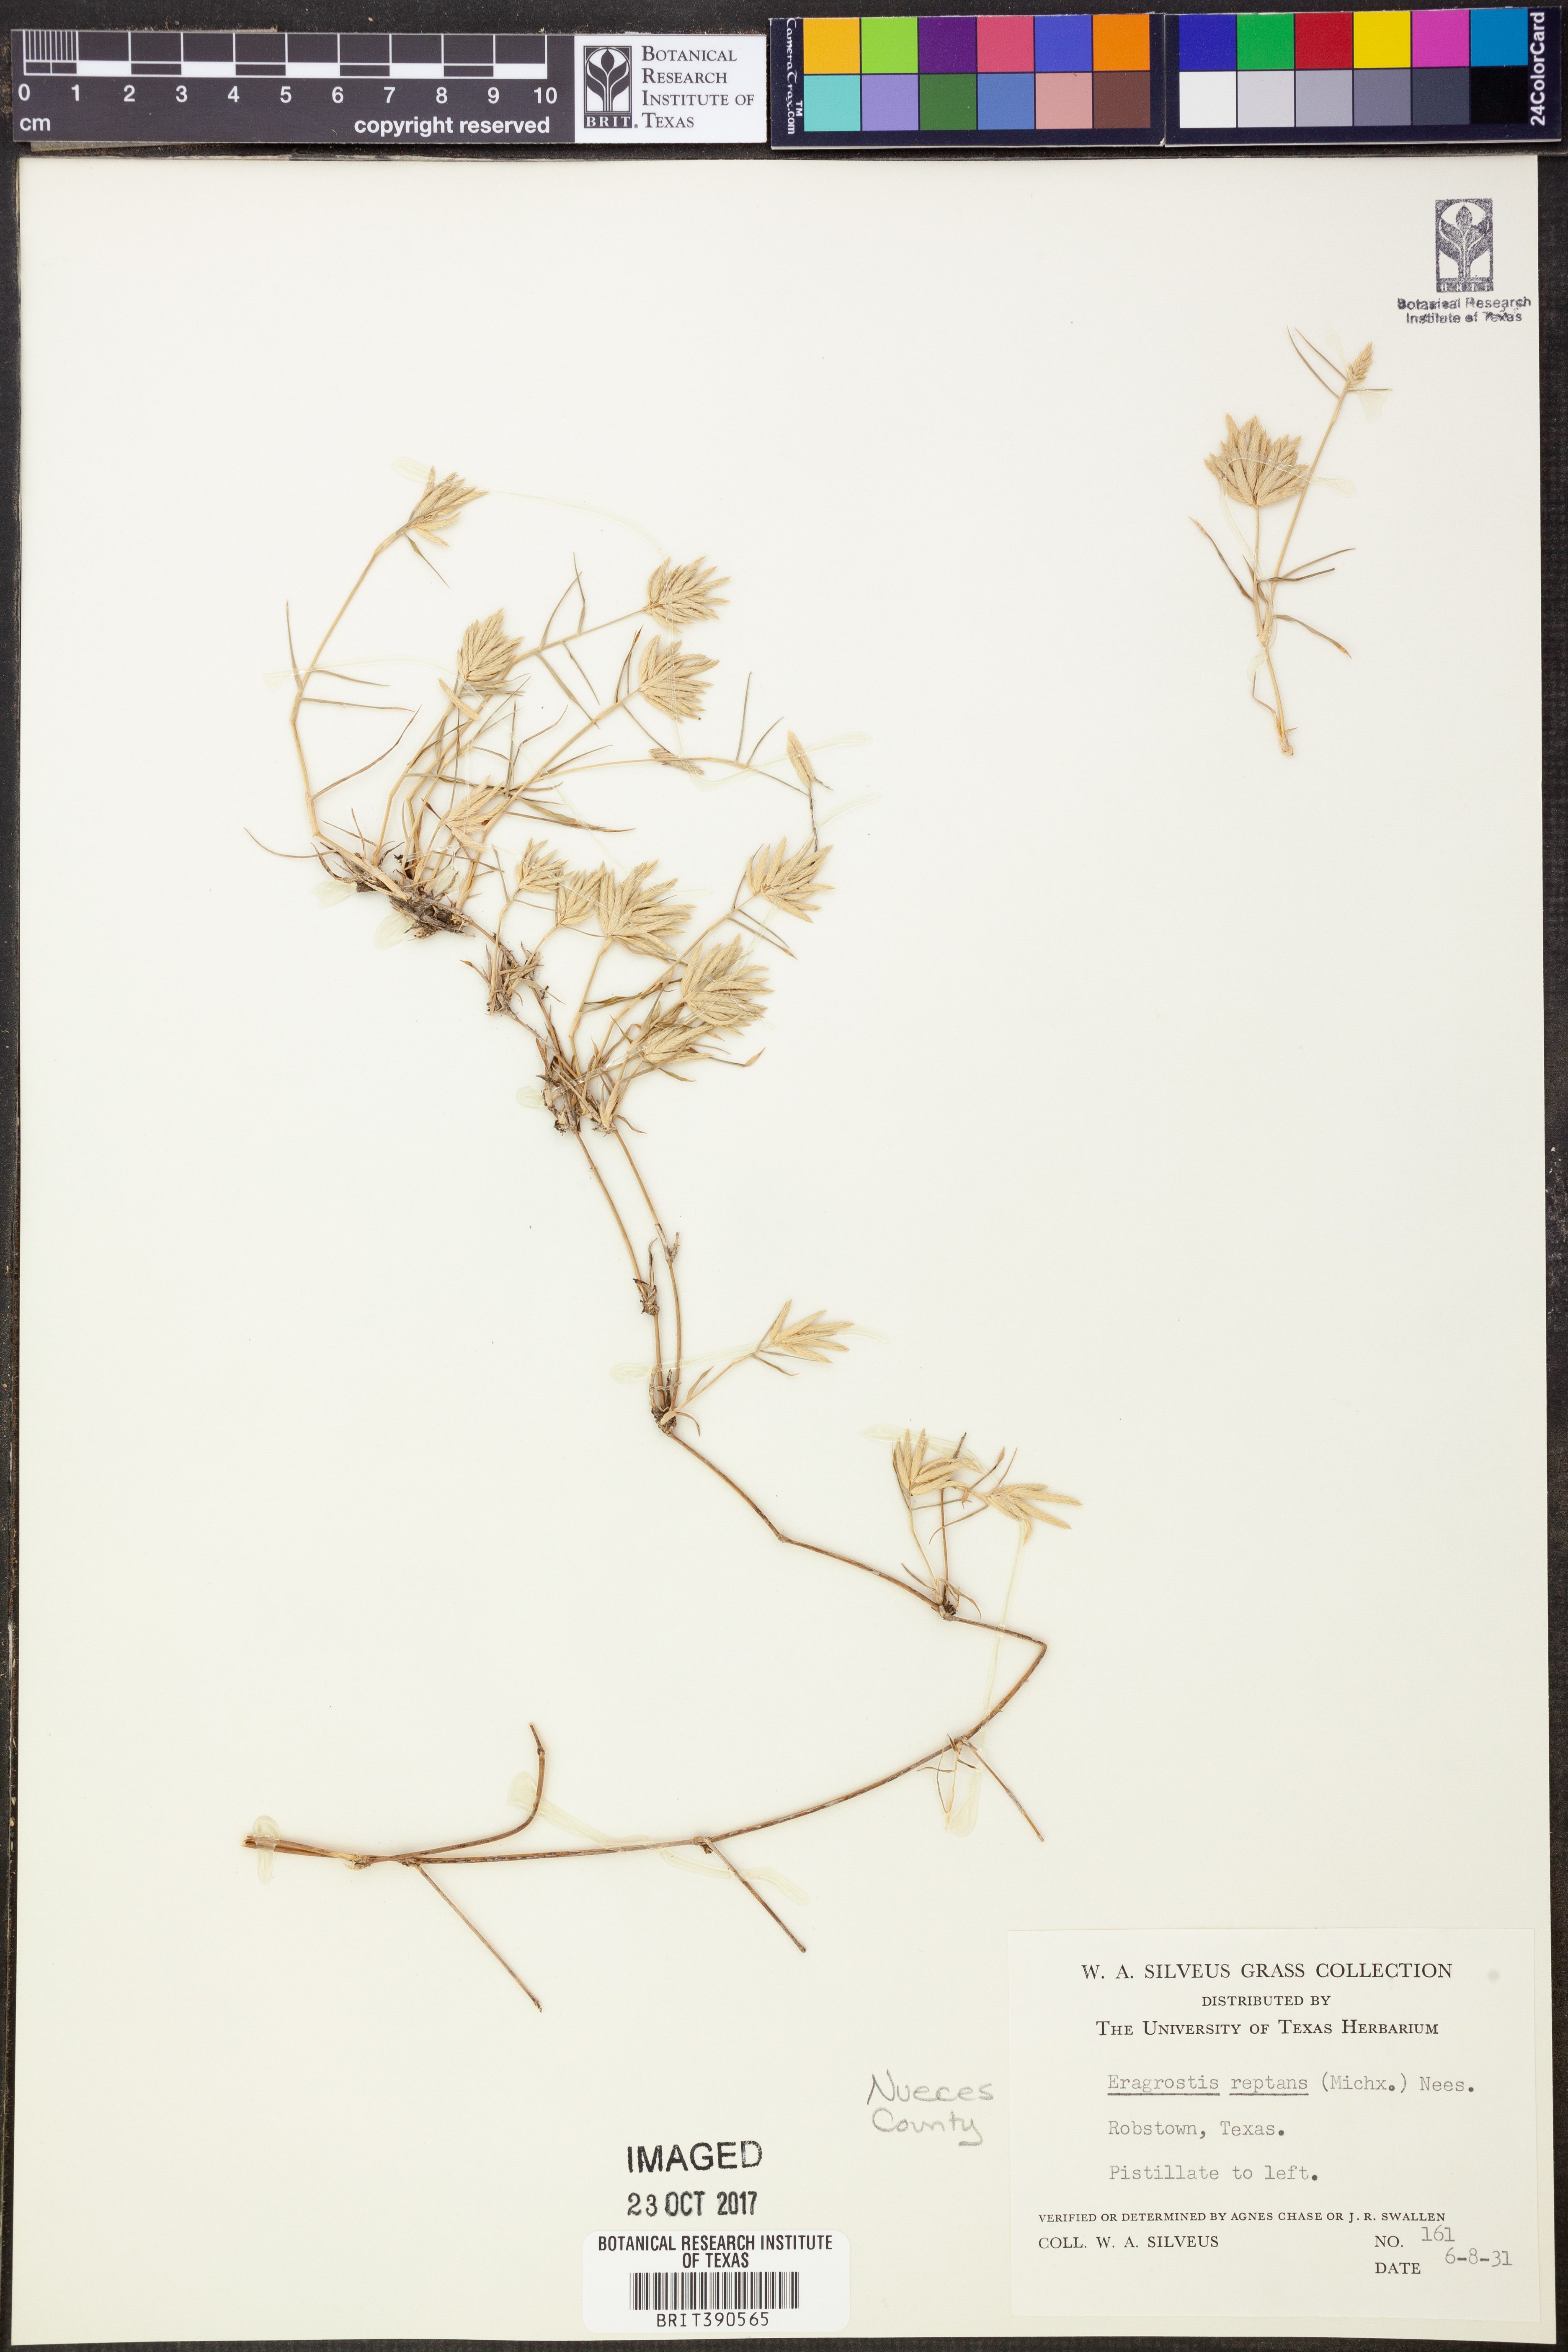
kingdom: Plantae
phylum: Tracheophyta
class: Liliopsida
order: Poales
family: Poaceae
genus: Eragrostis
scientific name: Eragrostis reptans
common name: Creeping love grass
